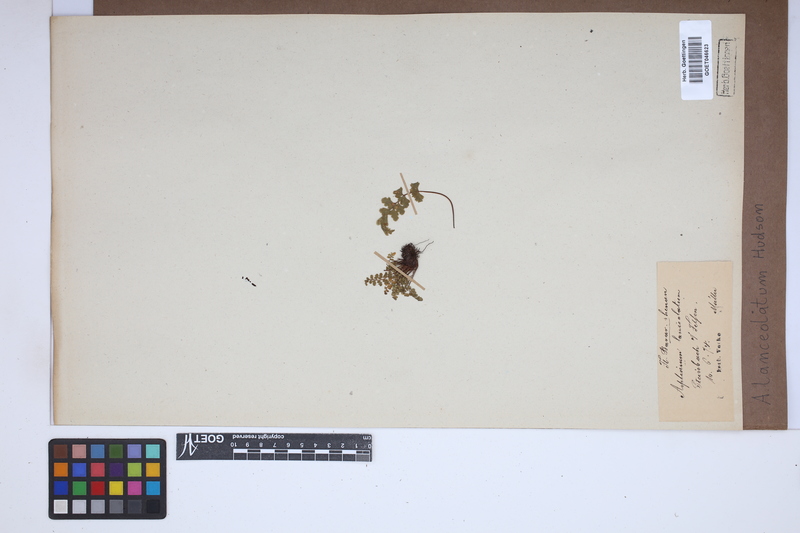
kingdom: Plantae
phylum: Tracheophyta
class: Polypodiopsida
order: Polypodiales
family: Aspleniaceae
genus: Asplenium
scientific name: Asplenium obovatum
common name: Lanceolate spleenwort
